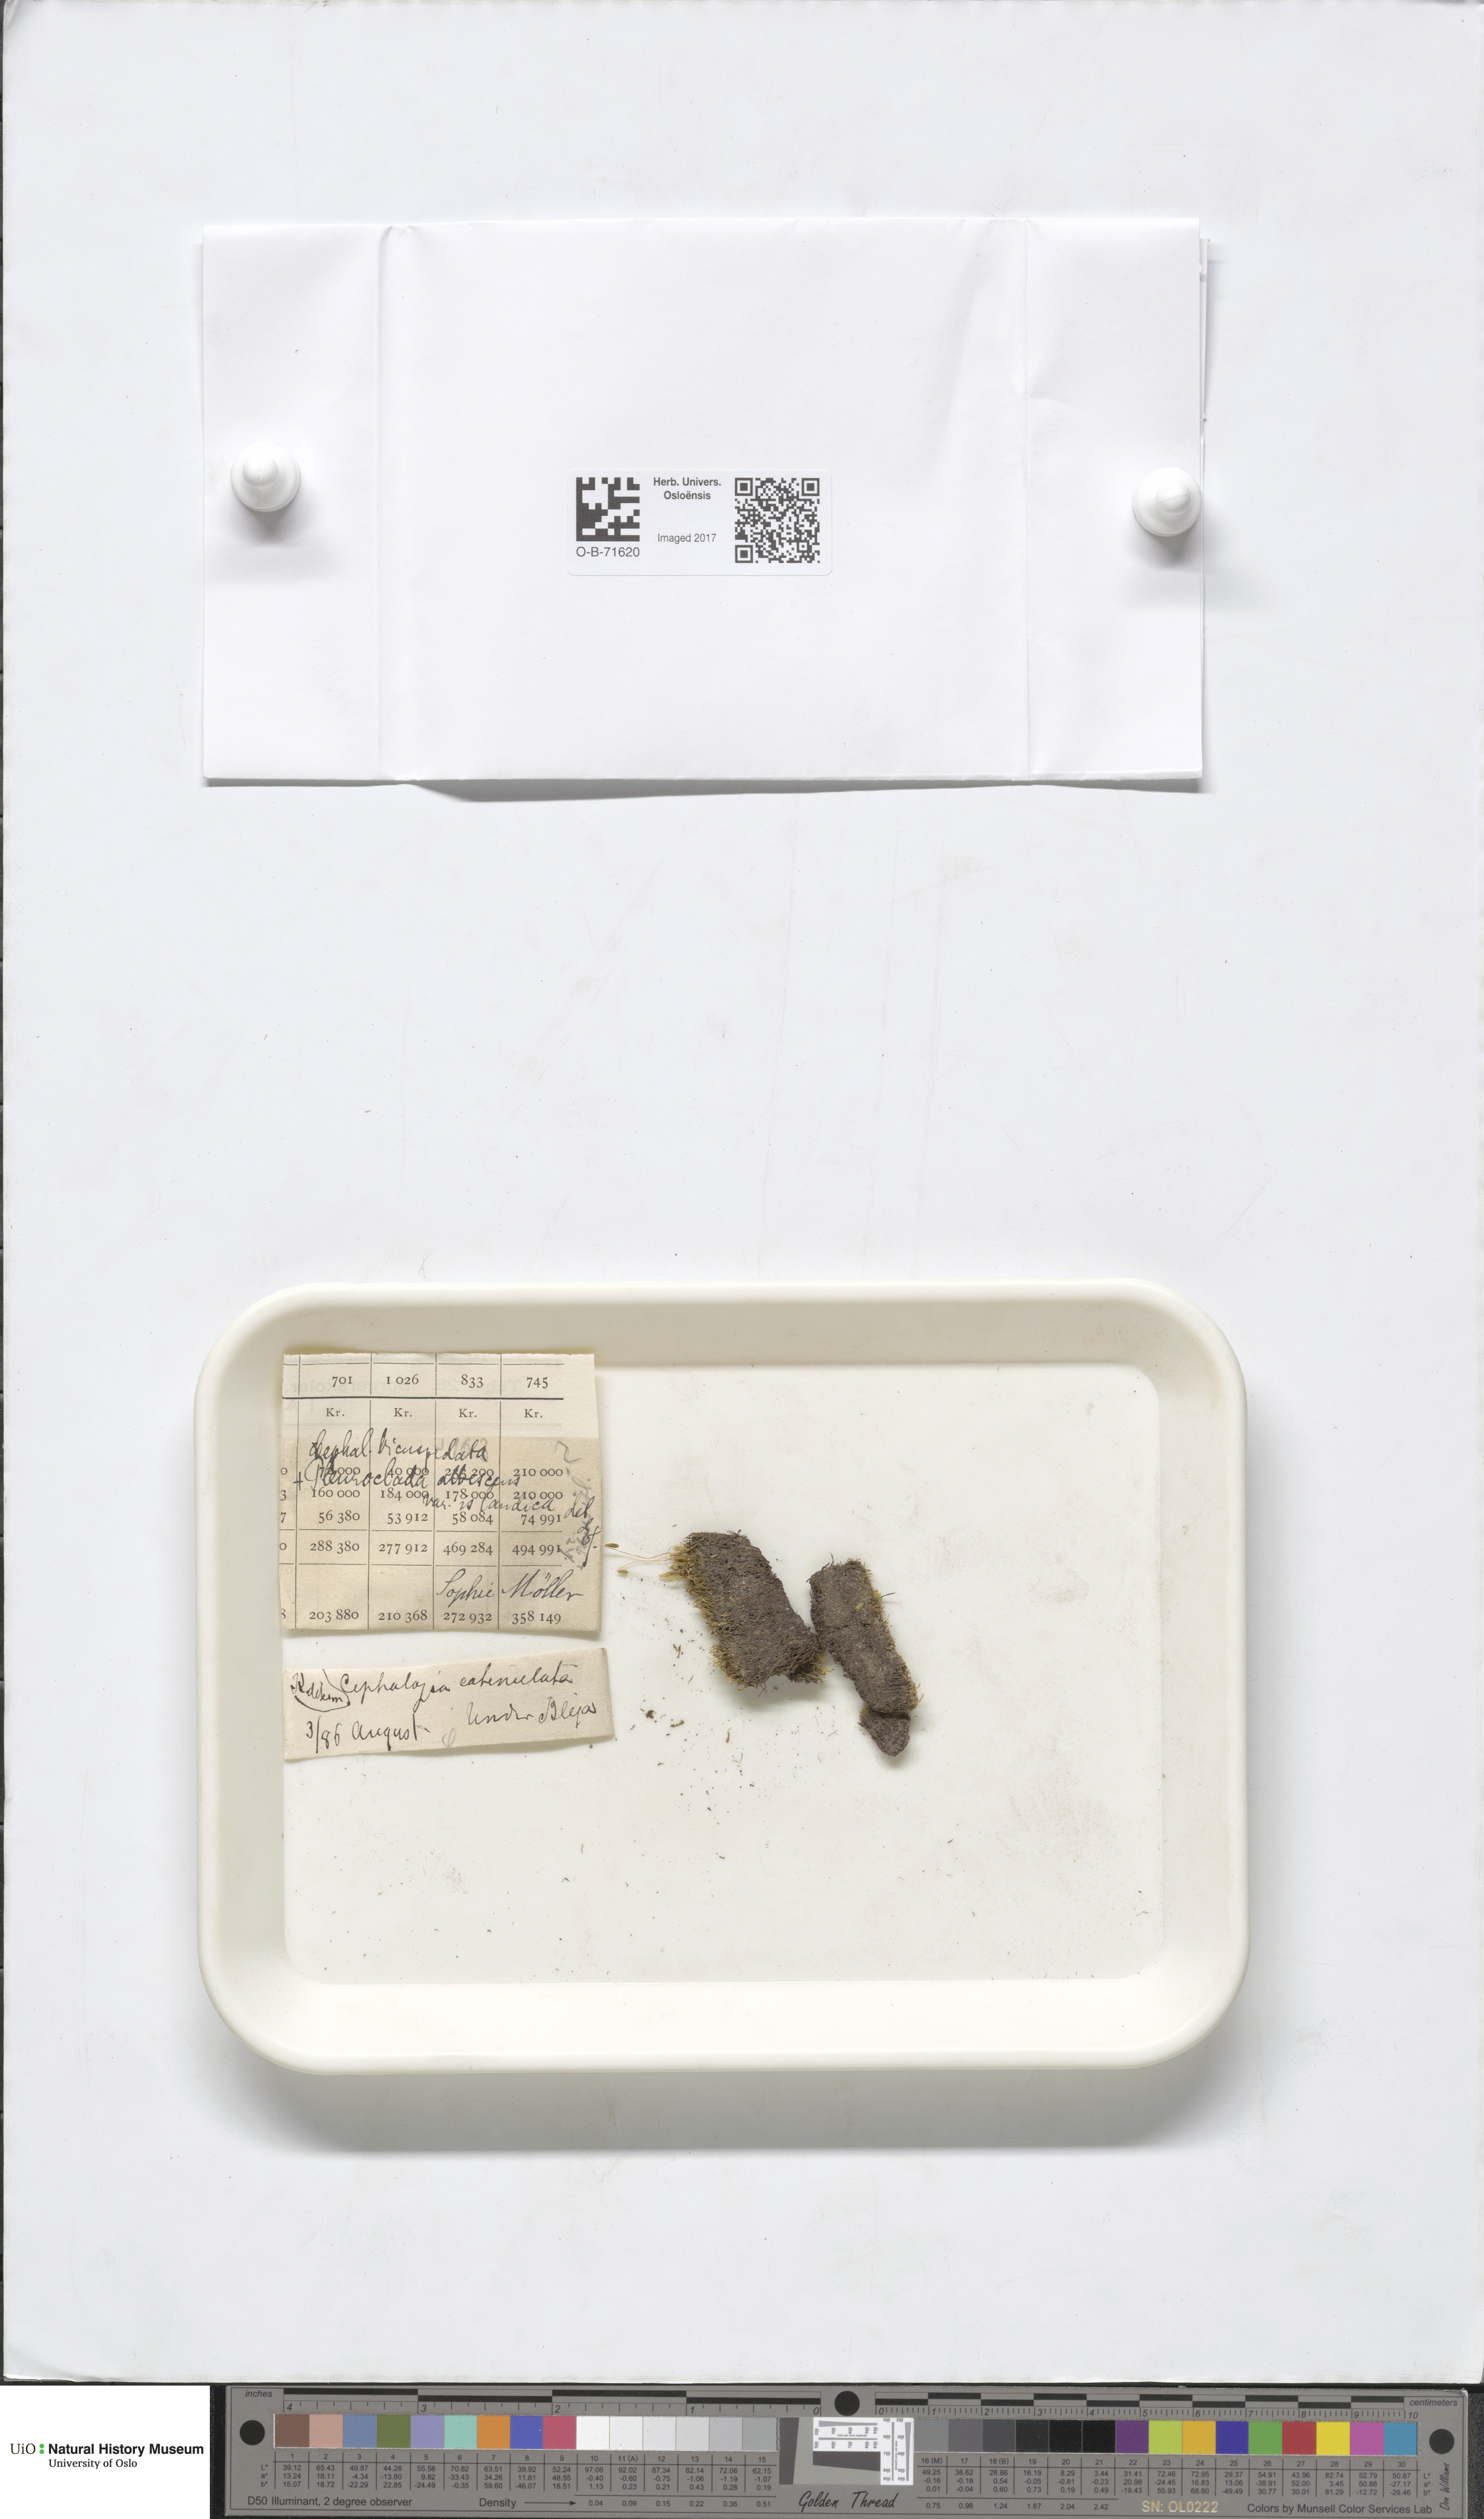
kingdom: Plantae
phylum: Marchantiophyta
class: Jungermanniopsida
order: Jungermanniales
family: Cephaloziaceae
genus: Cephalozia
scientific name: Cephalozia bicuspidata
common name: Two-horned pincerwort
